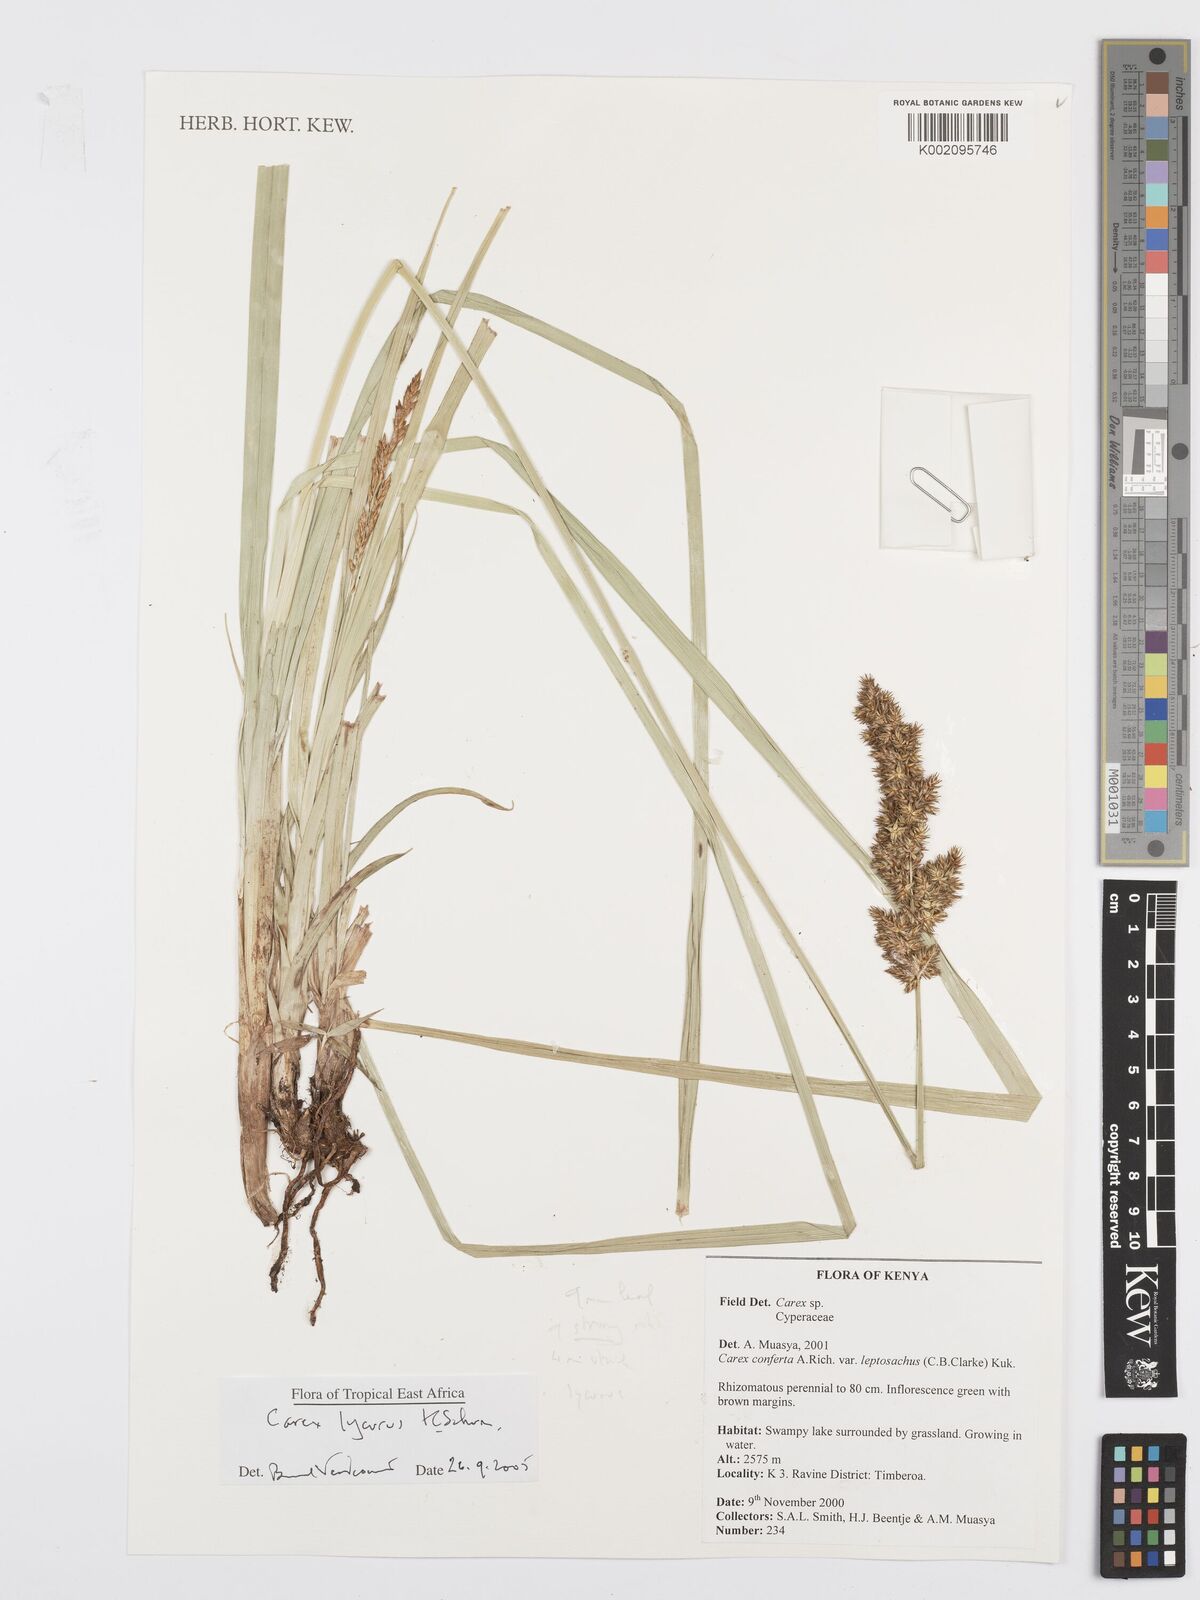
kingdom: Plantae
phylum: Tracheophyta
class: Liliopsida
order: Poales
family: Cyperaceae
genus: Carex
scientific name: Carex lycurus
